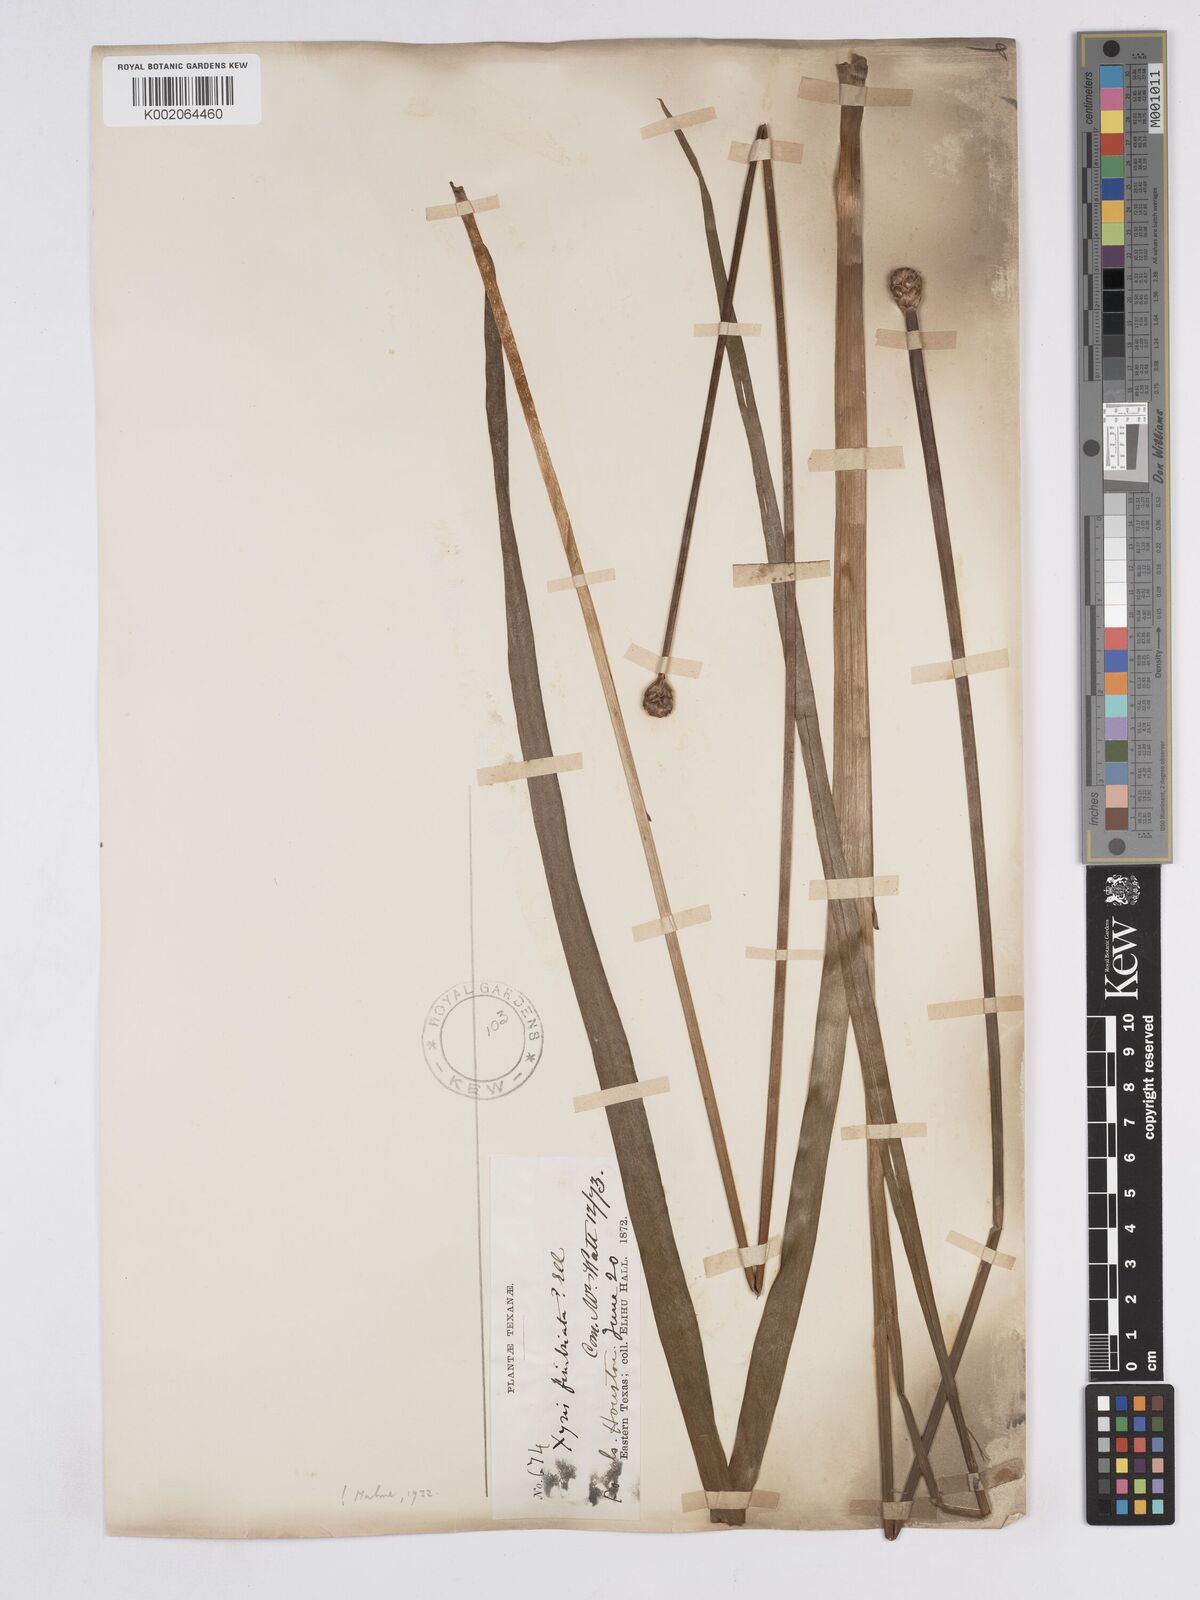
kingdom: Plantae
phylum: Tracheophyta
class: Liliopsida
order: Poales
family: Xyridaceae
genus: Xyris
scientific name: Xyris fimbriata
